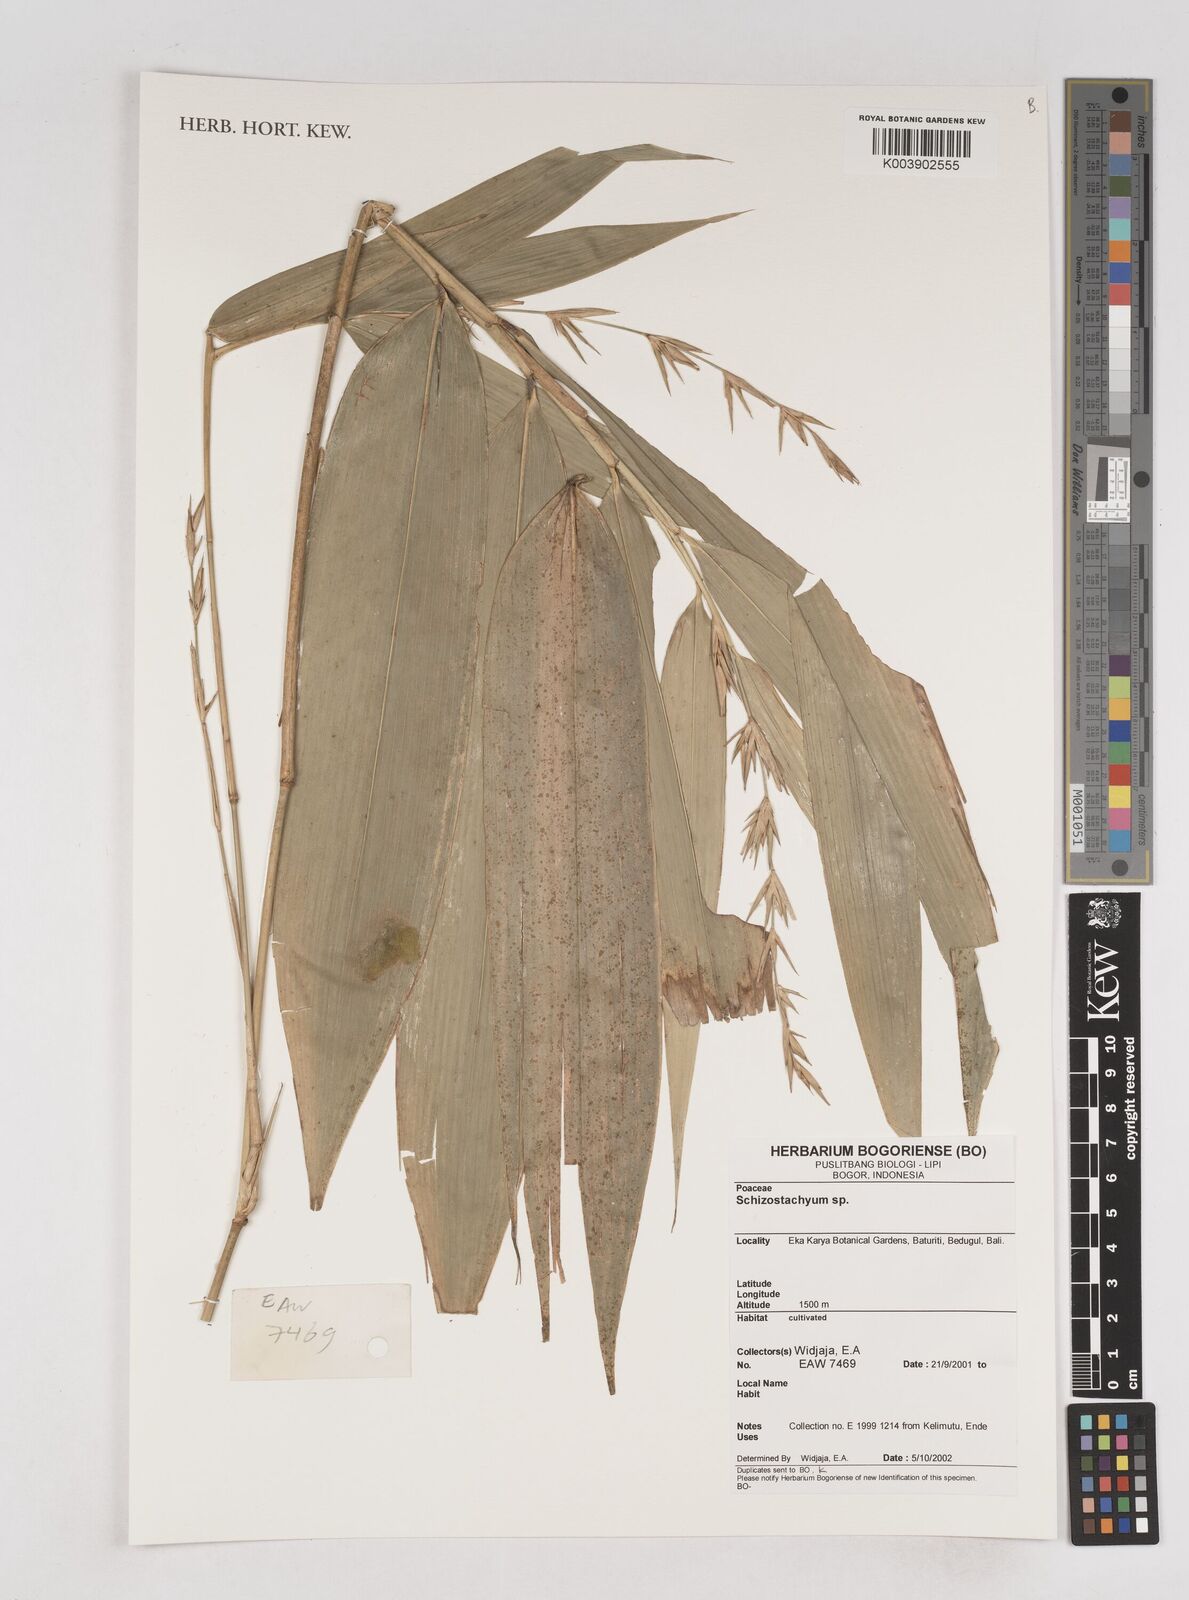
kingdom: Plantae
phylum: Tracheophyta
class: Liliopsida
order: Poales
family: Poaceae
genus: Schizostachyum
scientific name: Schizostachyum
